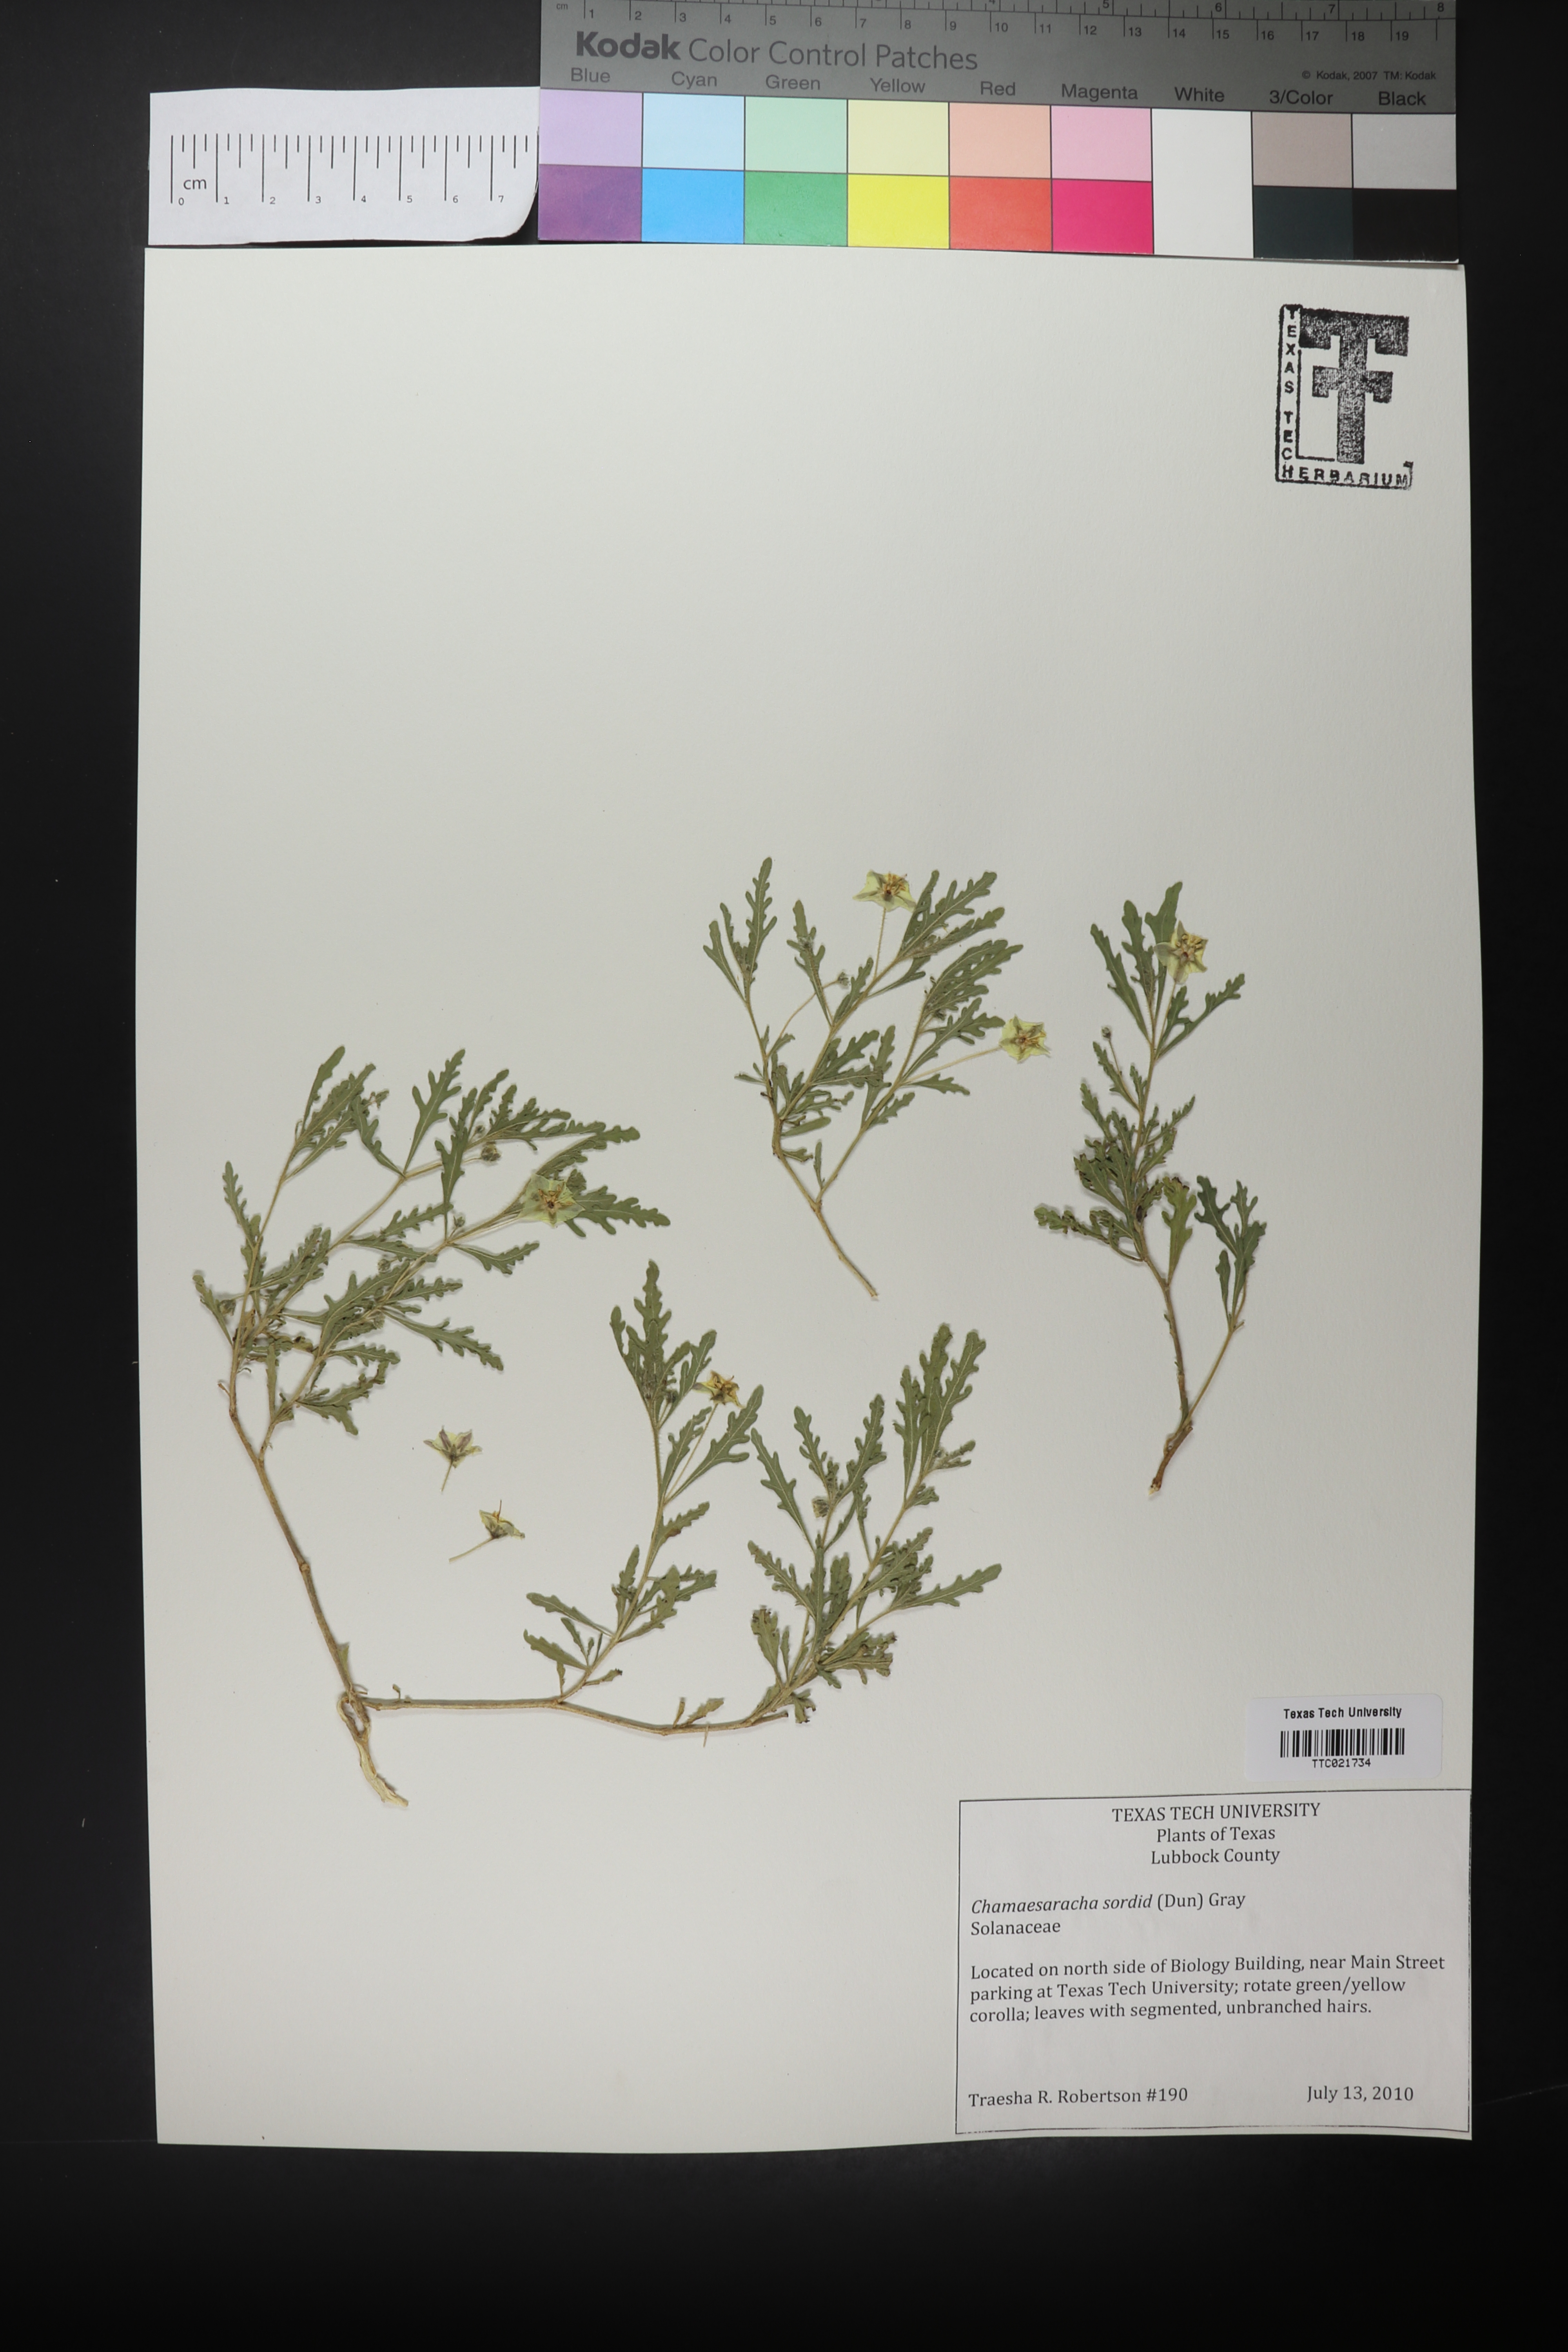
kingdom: Plantae
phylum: Tracheophyta
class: Magnoliopsida
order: Solanales
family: Solanaceae
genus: Chamaesaracha
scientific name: Chamaesaracha sordida
